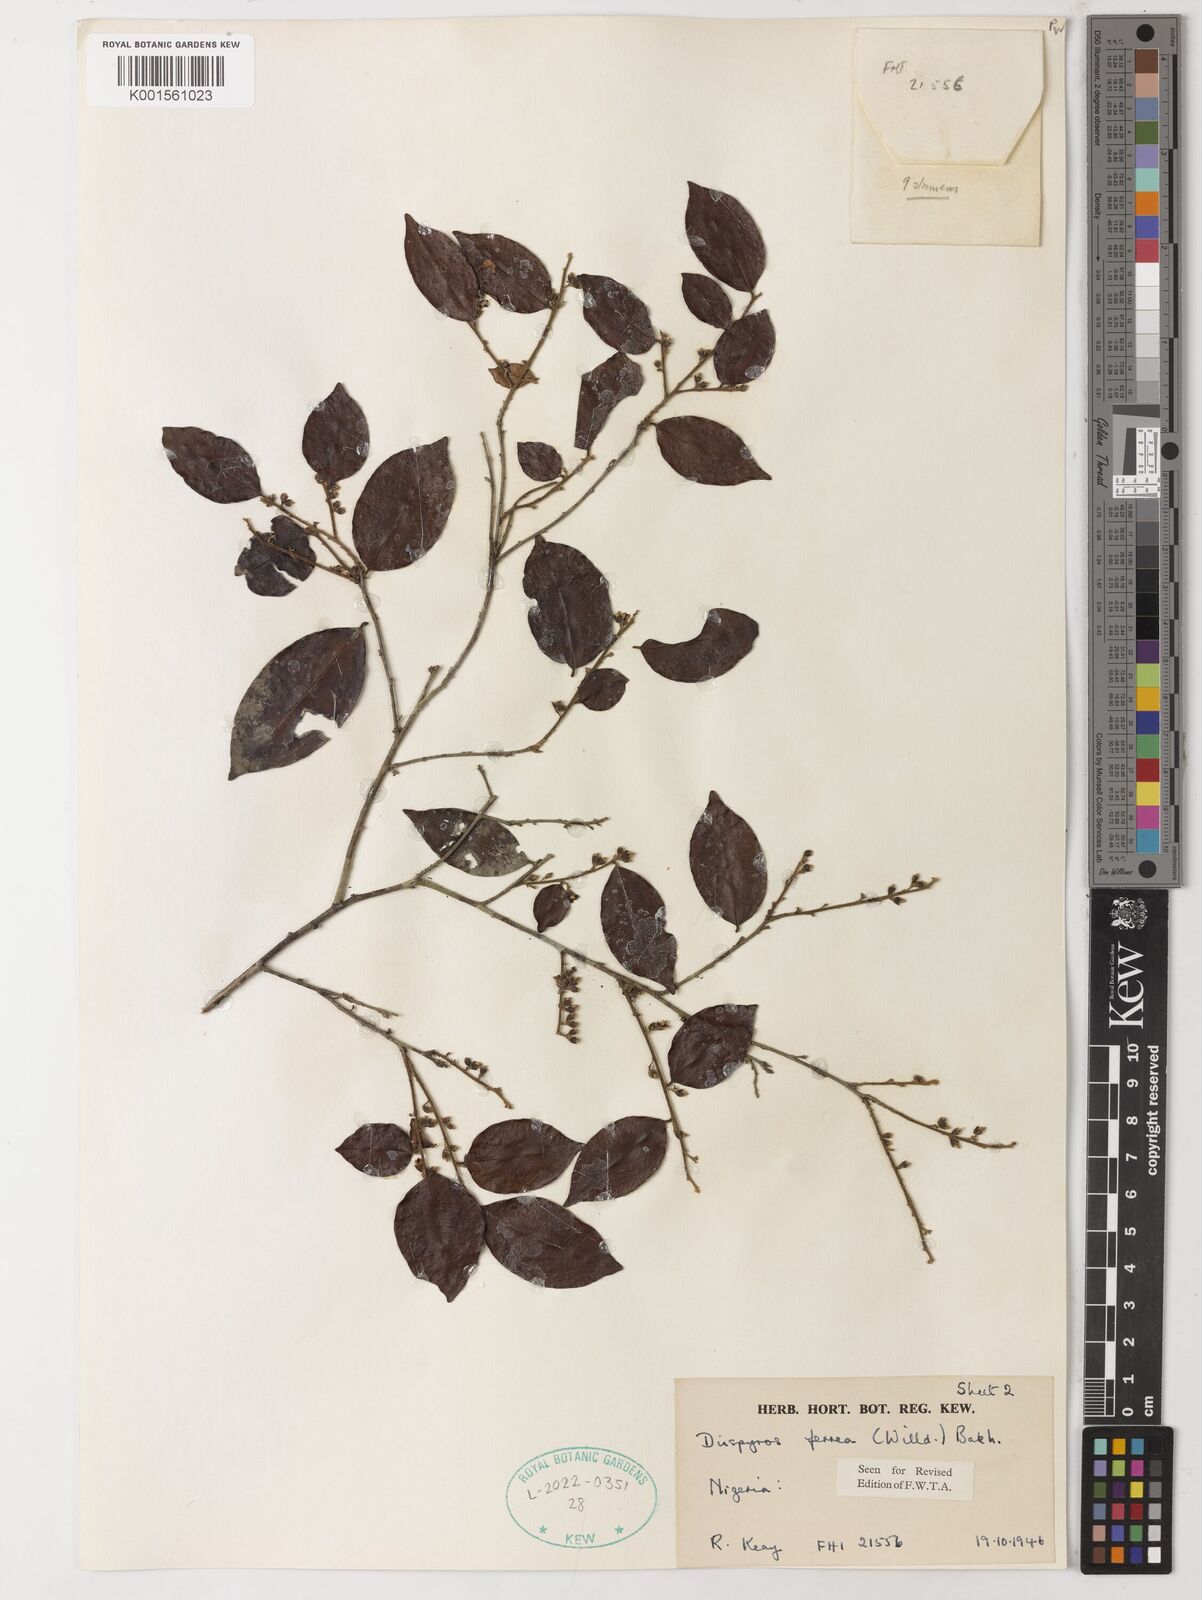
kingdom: Plantae
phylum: Tracheophyta
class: Magnoliopsida
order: Ericales
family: Ebenaceae
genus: Diospyros
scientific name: Diospyros ferrea
